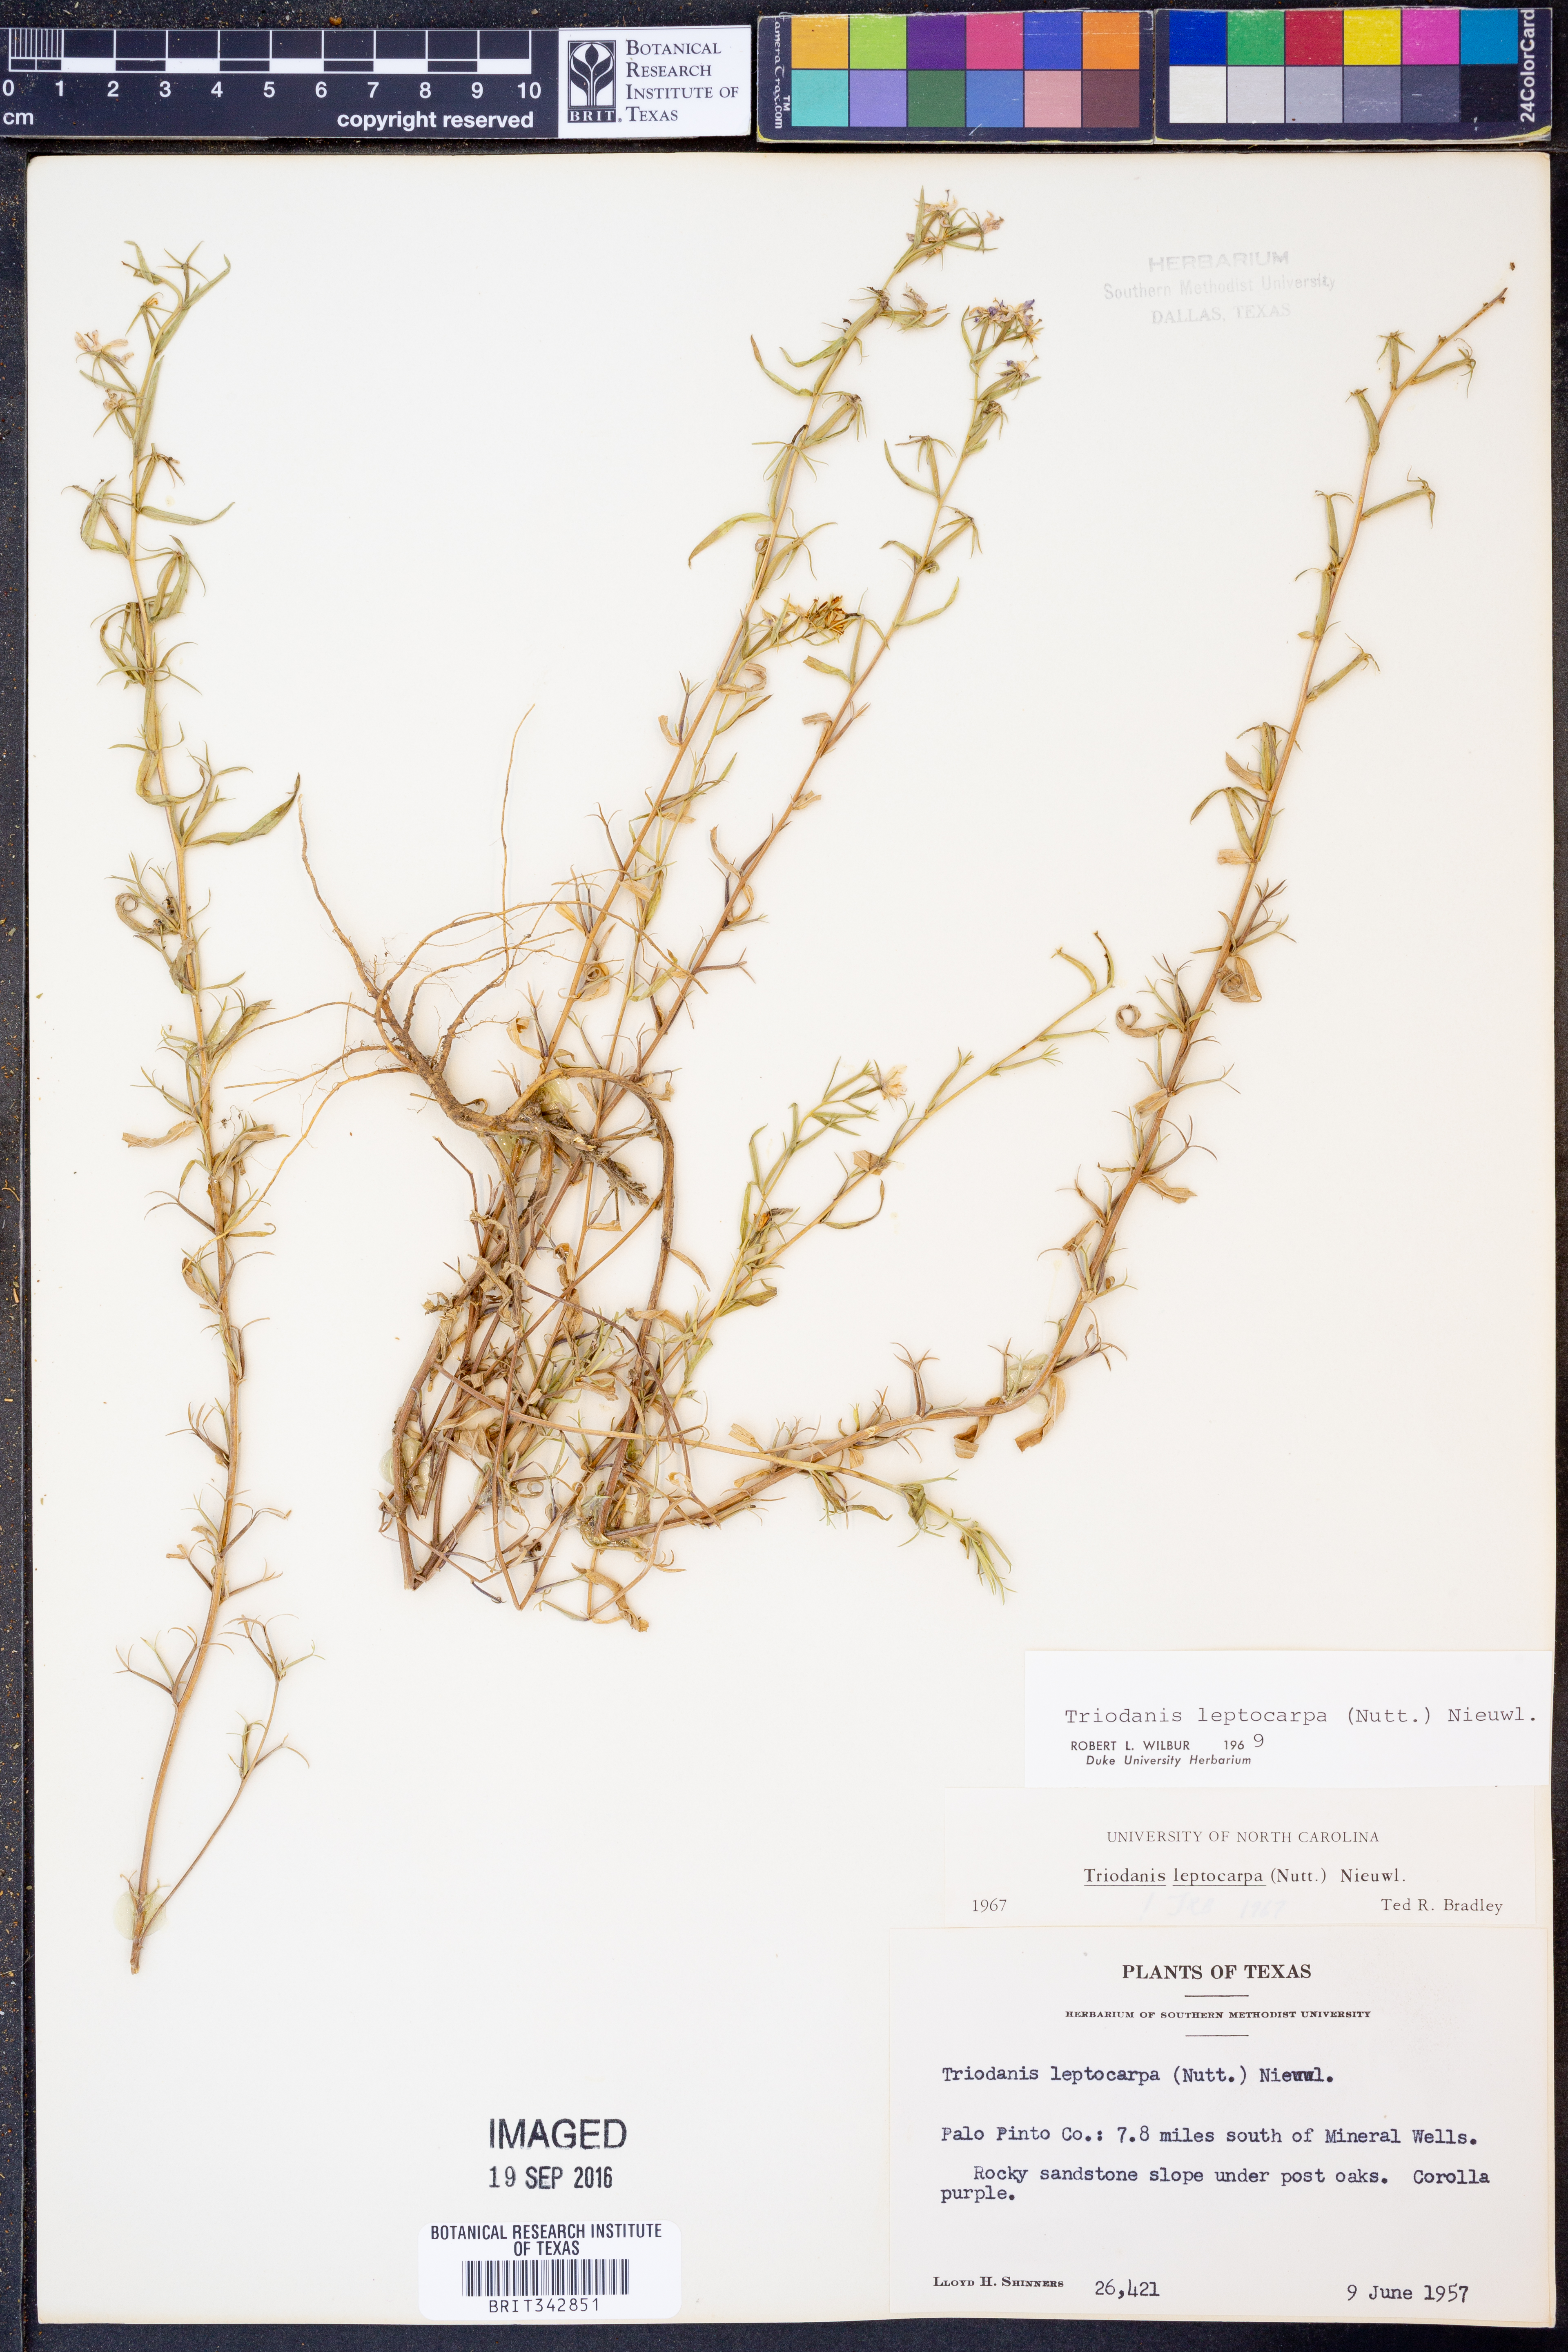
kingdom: Plantae
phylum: Tracheophyta
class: Magnoliopsida
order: Asterales
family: Campanulaceae
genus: Triodanis
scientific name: Triodanis leptocarpa
